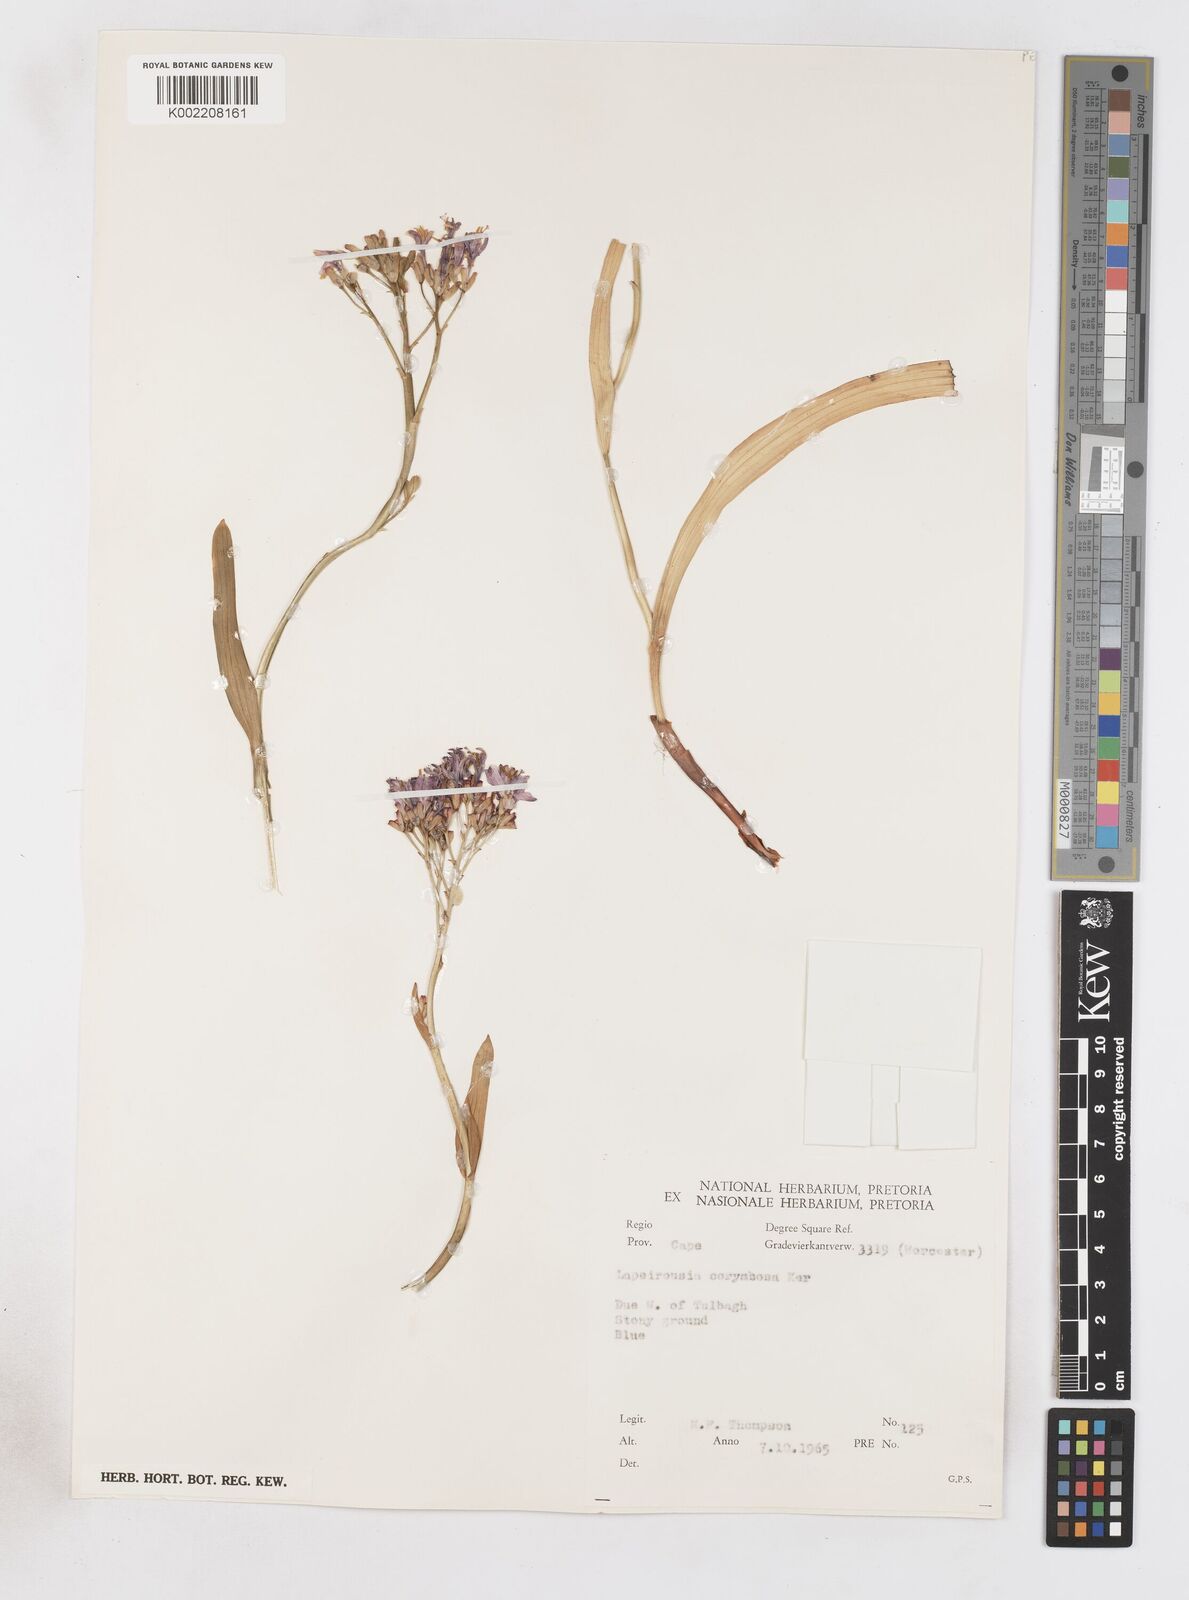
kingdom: Plantae
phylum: Tracheophyta
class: Liliopsida
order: Asparagales
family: Iridaceae
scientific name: Iridaceae
